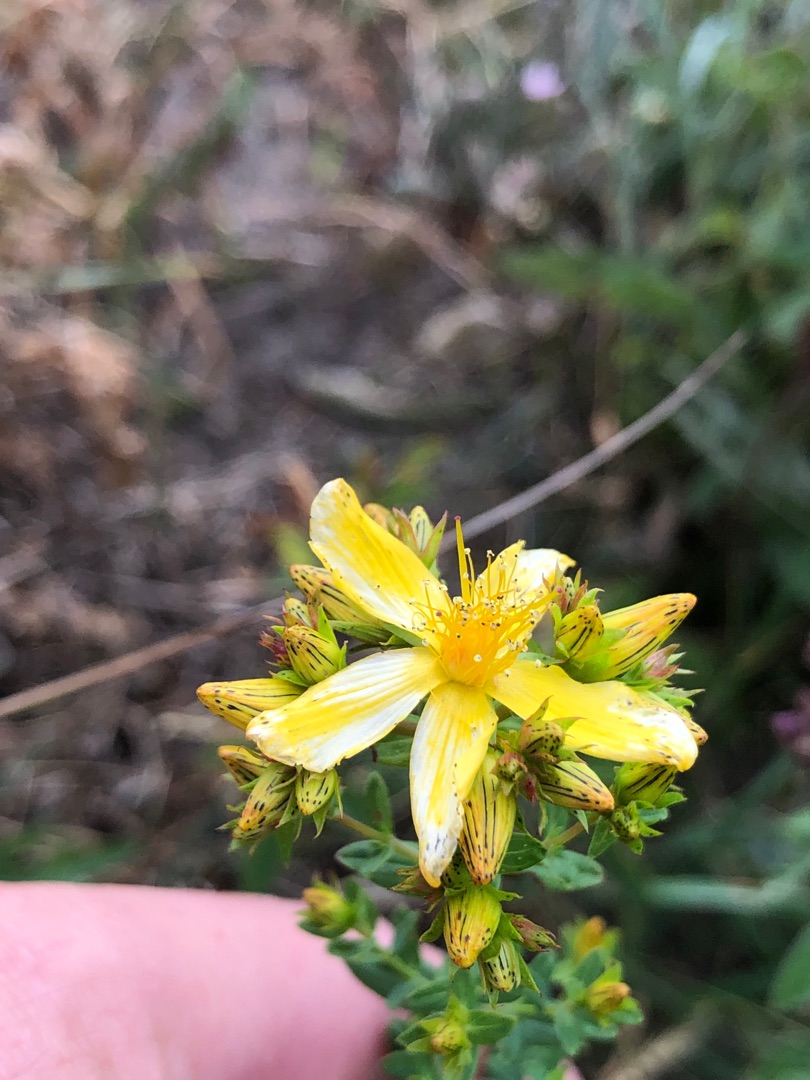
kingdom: Plantae
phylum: Tracheophyta
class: Magnoliopsida
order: Malpighiales
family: Hypericaceae
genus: Hypericum
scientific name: Hypericum perforatum
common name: Prikbladet perikon
